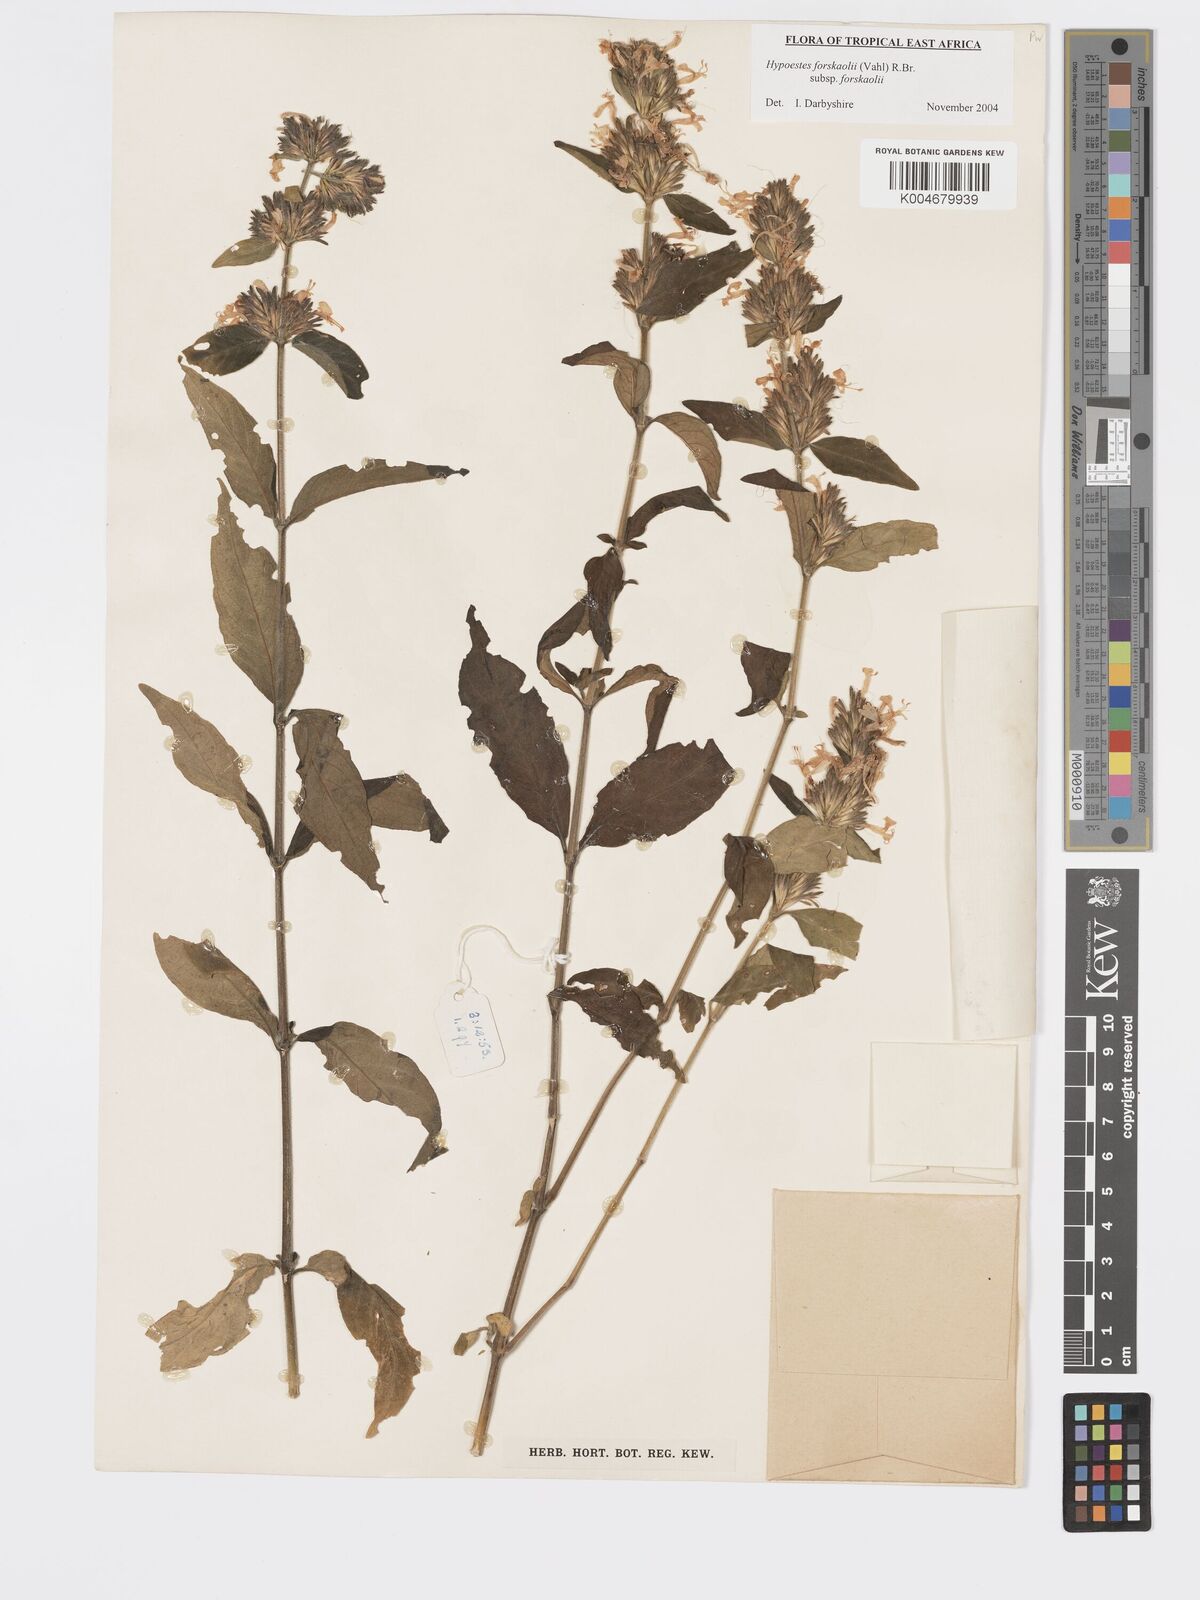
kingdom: Plantae
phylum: Tracheophyta
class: Magnoliopsida
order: Lamiales
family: Acanthaceae
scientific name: Acanthaceae
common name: Acanthaceae
